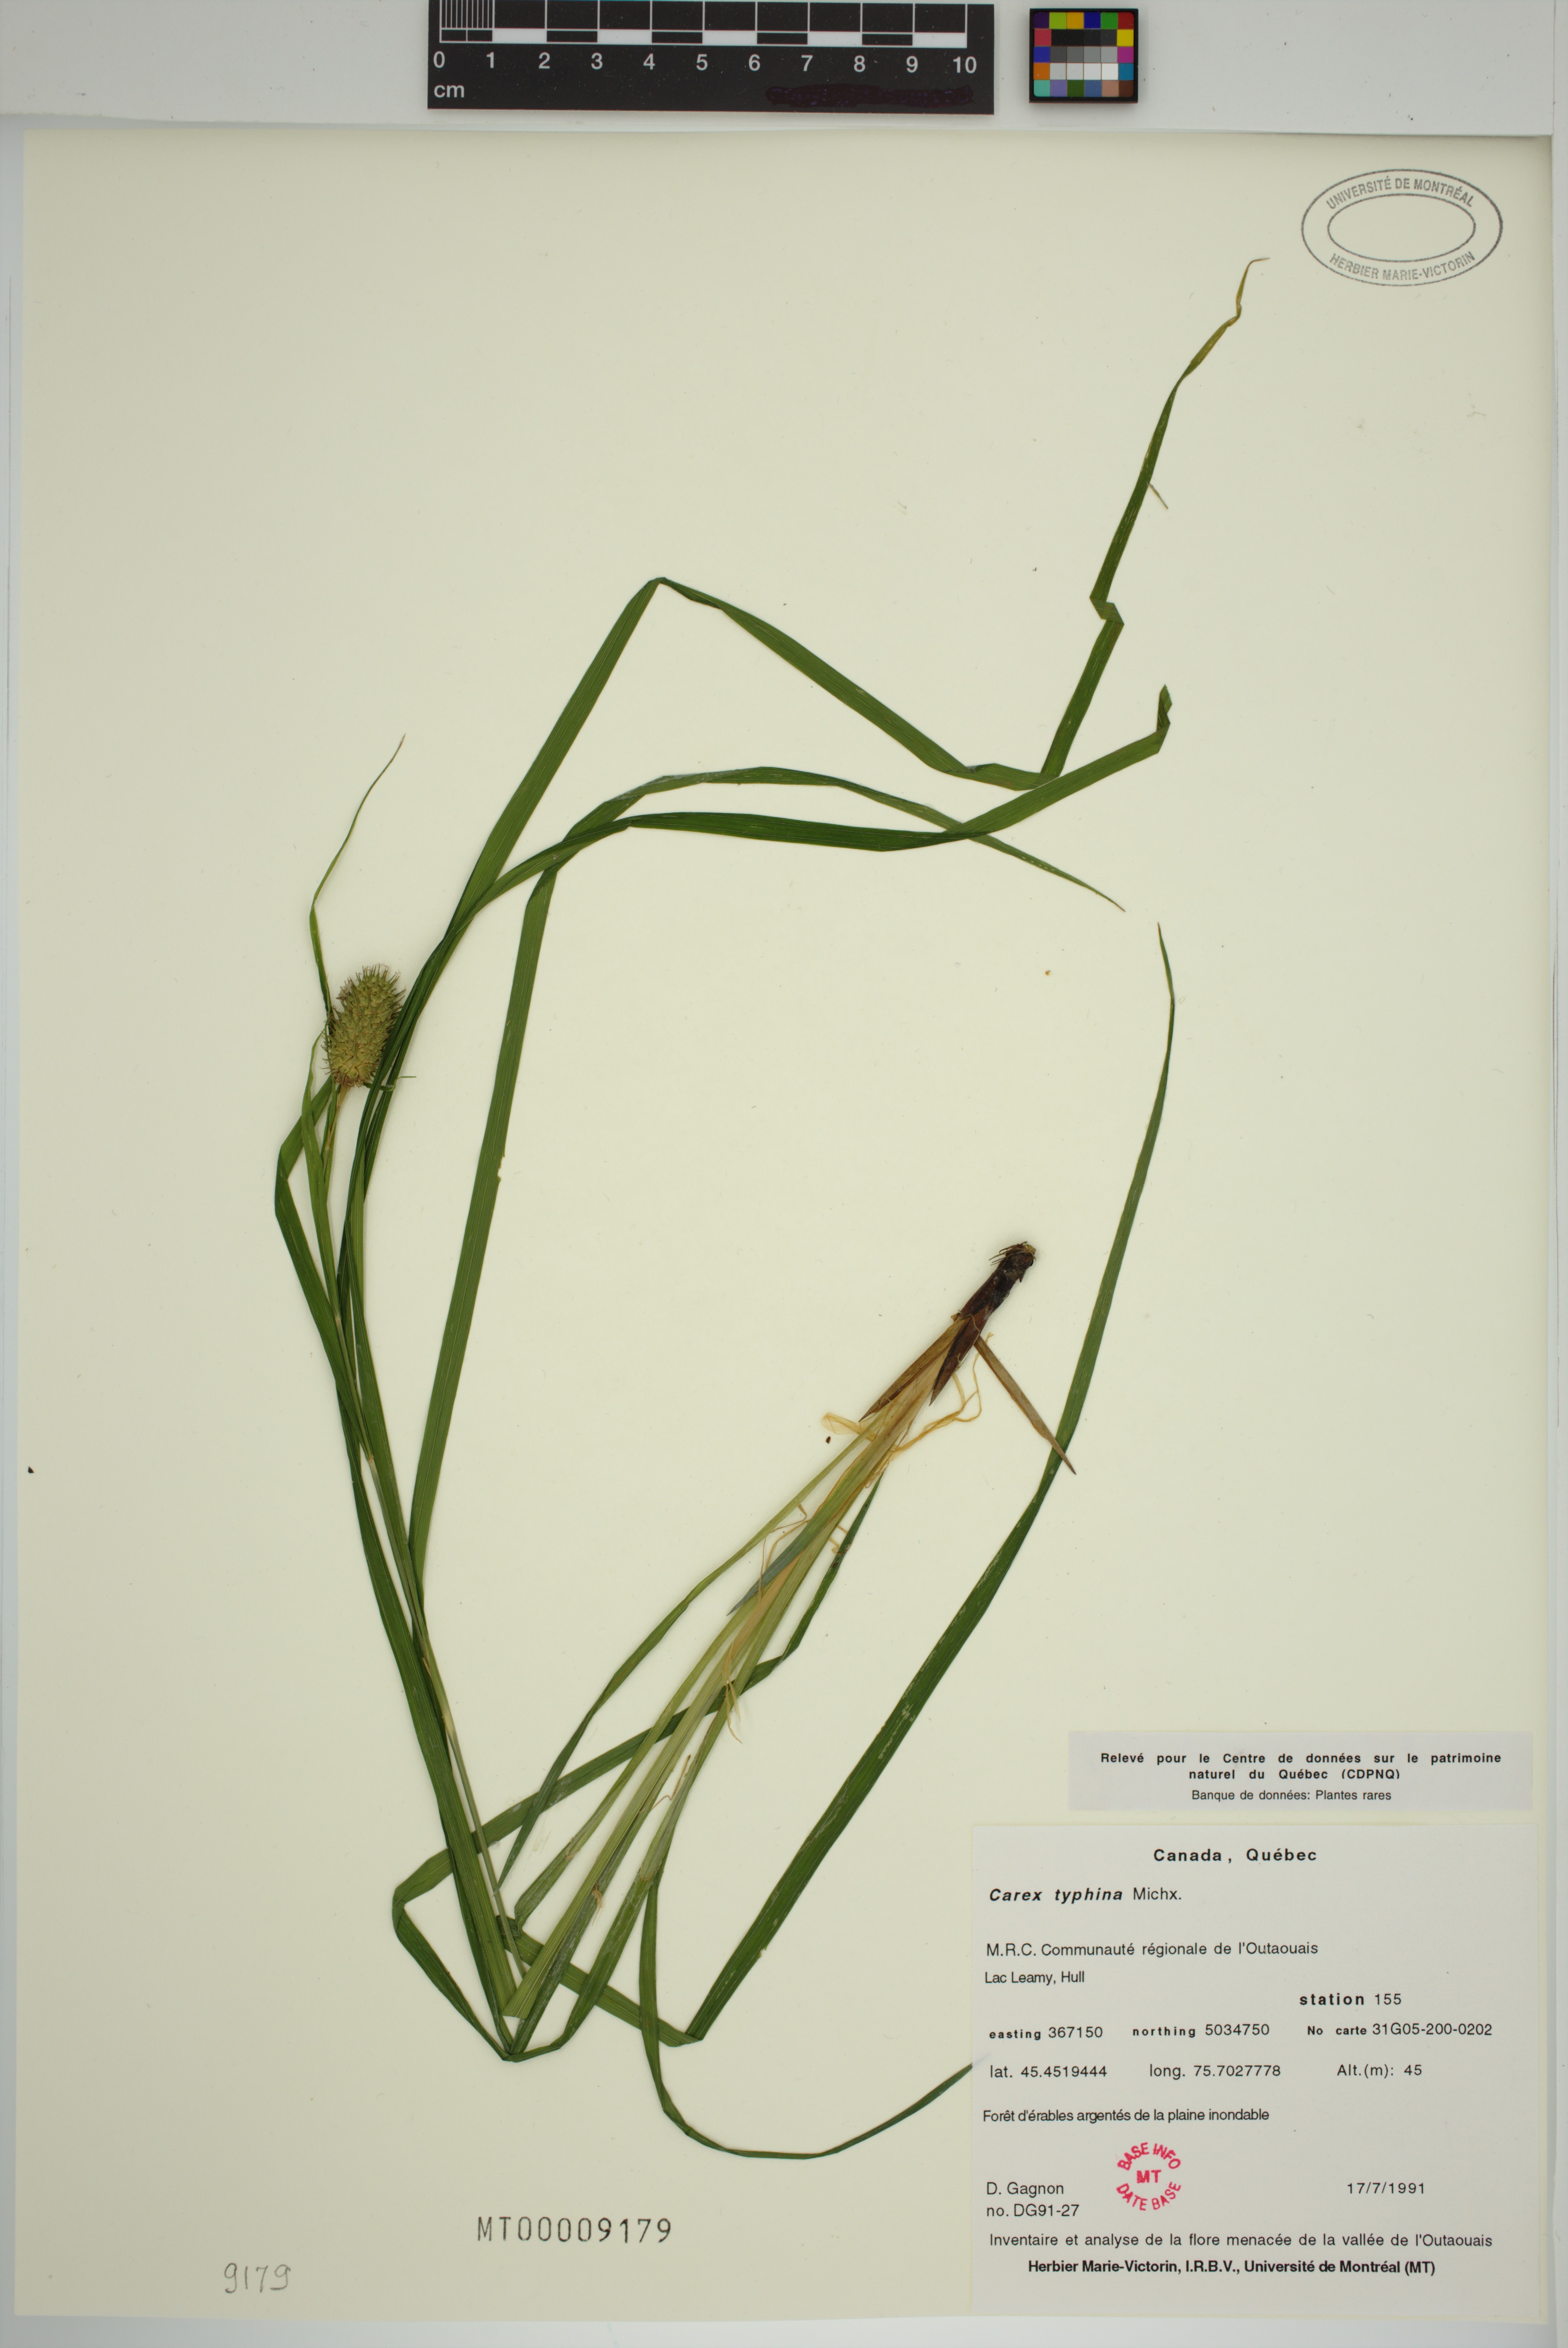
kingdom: Plantae
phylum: Tracheophyta
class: Liliopsida
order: Poales
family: Cyperaceae
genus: Carex
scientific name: Carex typhina
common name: Cattail sedge
